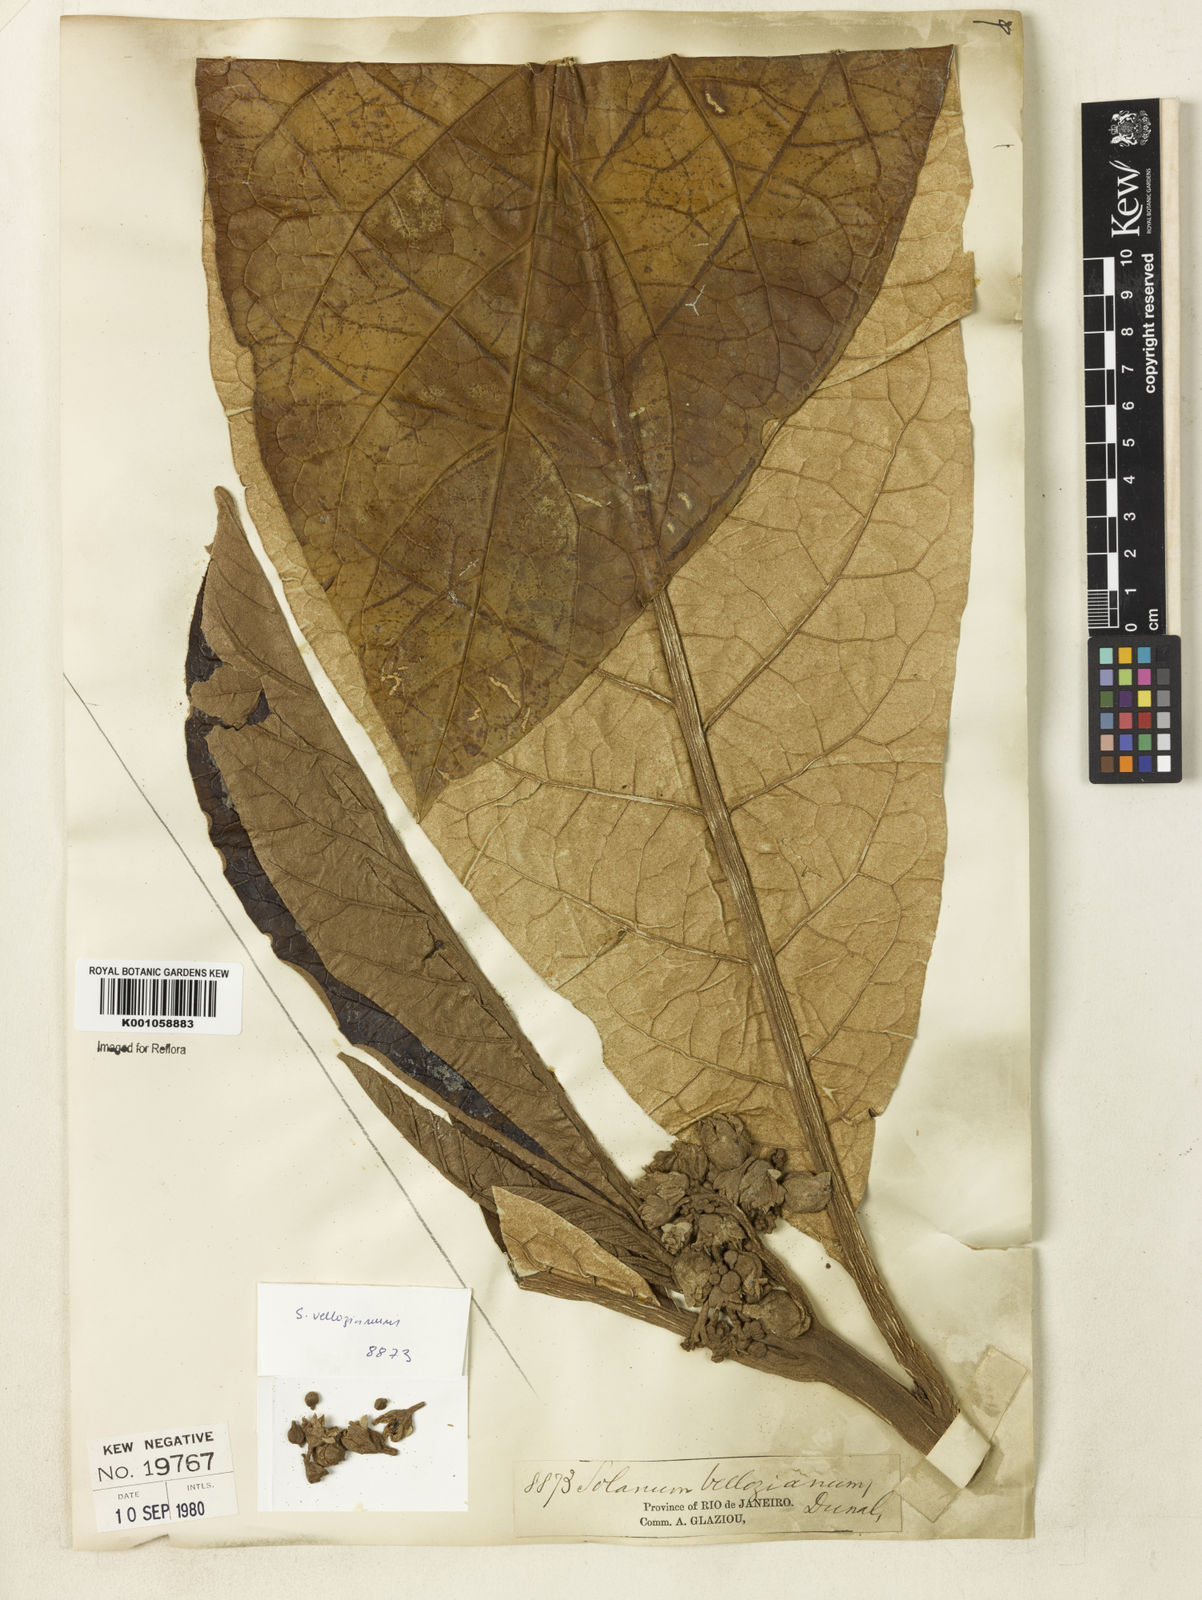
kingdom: Plantae
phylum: Tracheophyta
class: Magnoliopsida
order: Solanales
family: Solanaceae
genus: Solanum
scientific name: Solanum vellozianum
